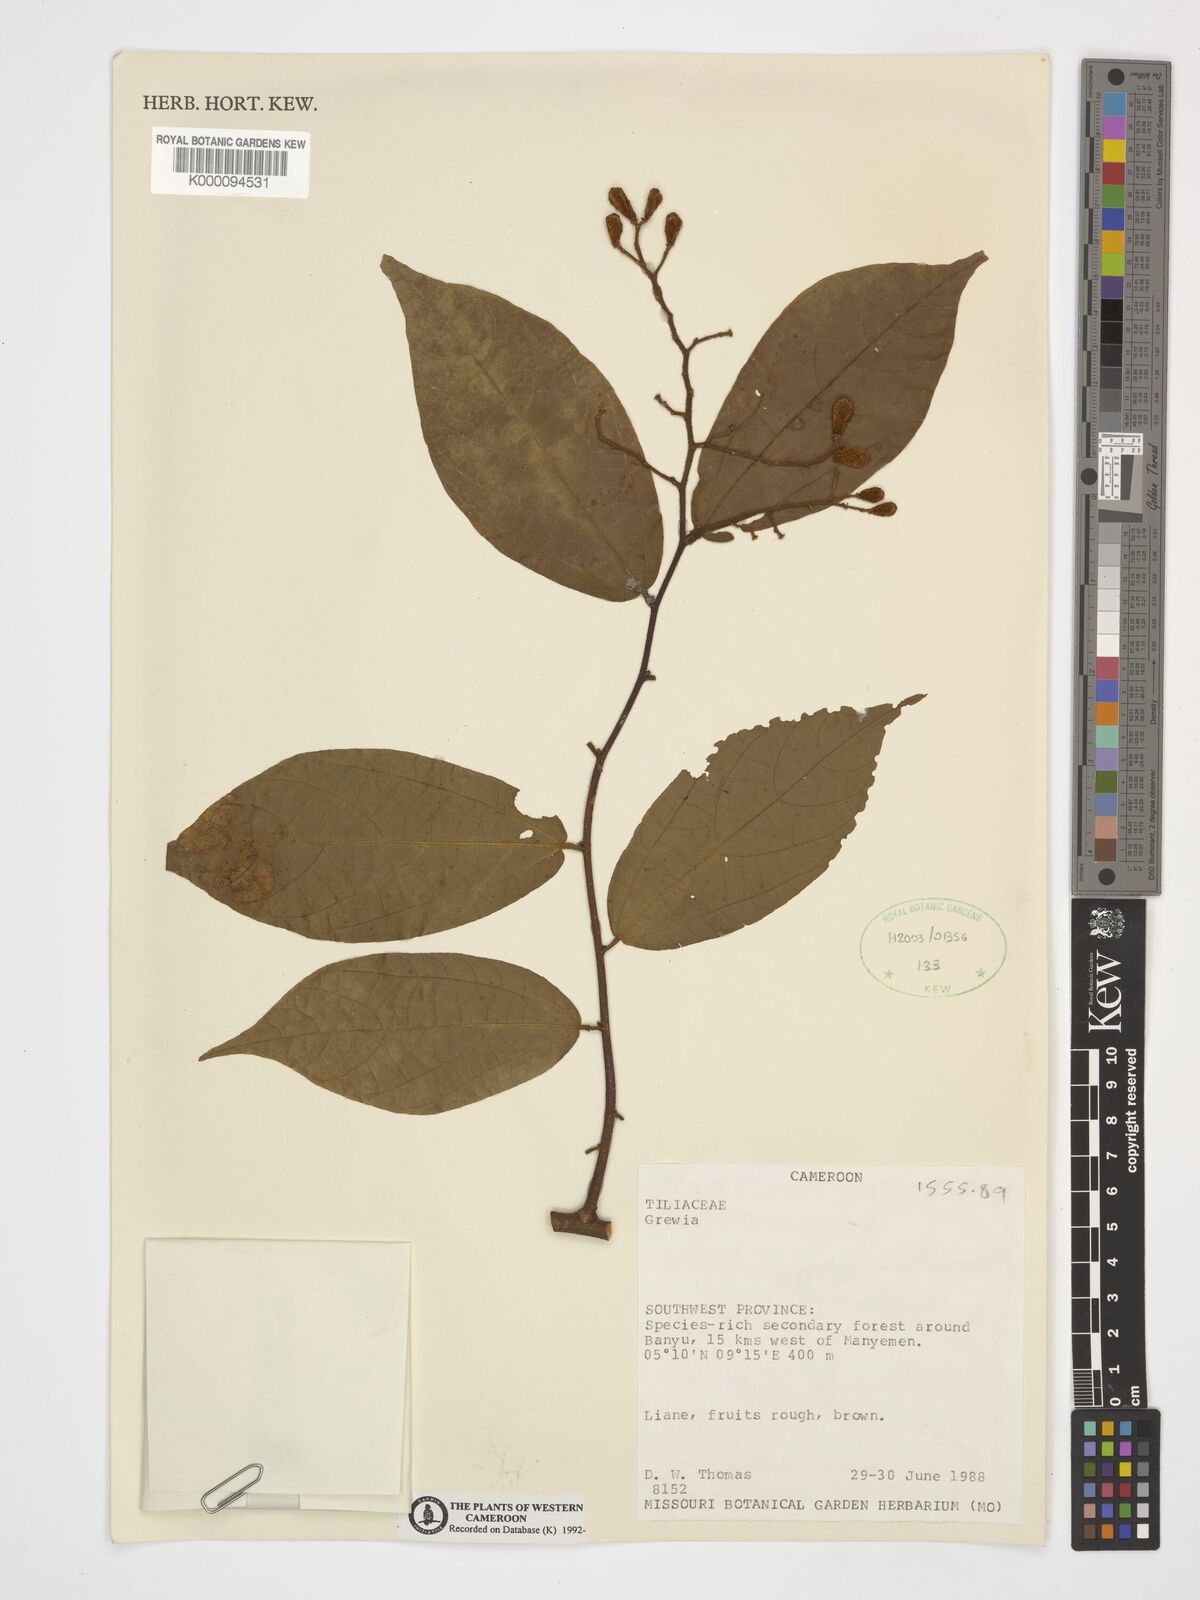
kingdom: Plantae
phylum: Tracheophyta
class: Magnoliopsida
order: Malvales
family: Malvaceae
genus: Grewia
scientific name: Grewia
